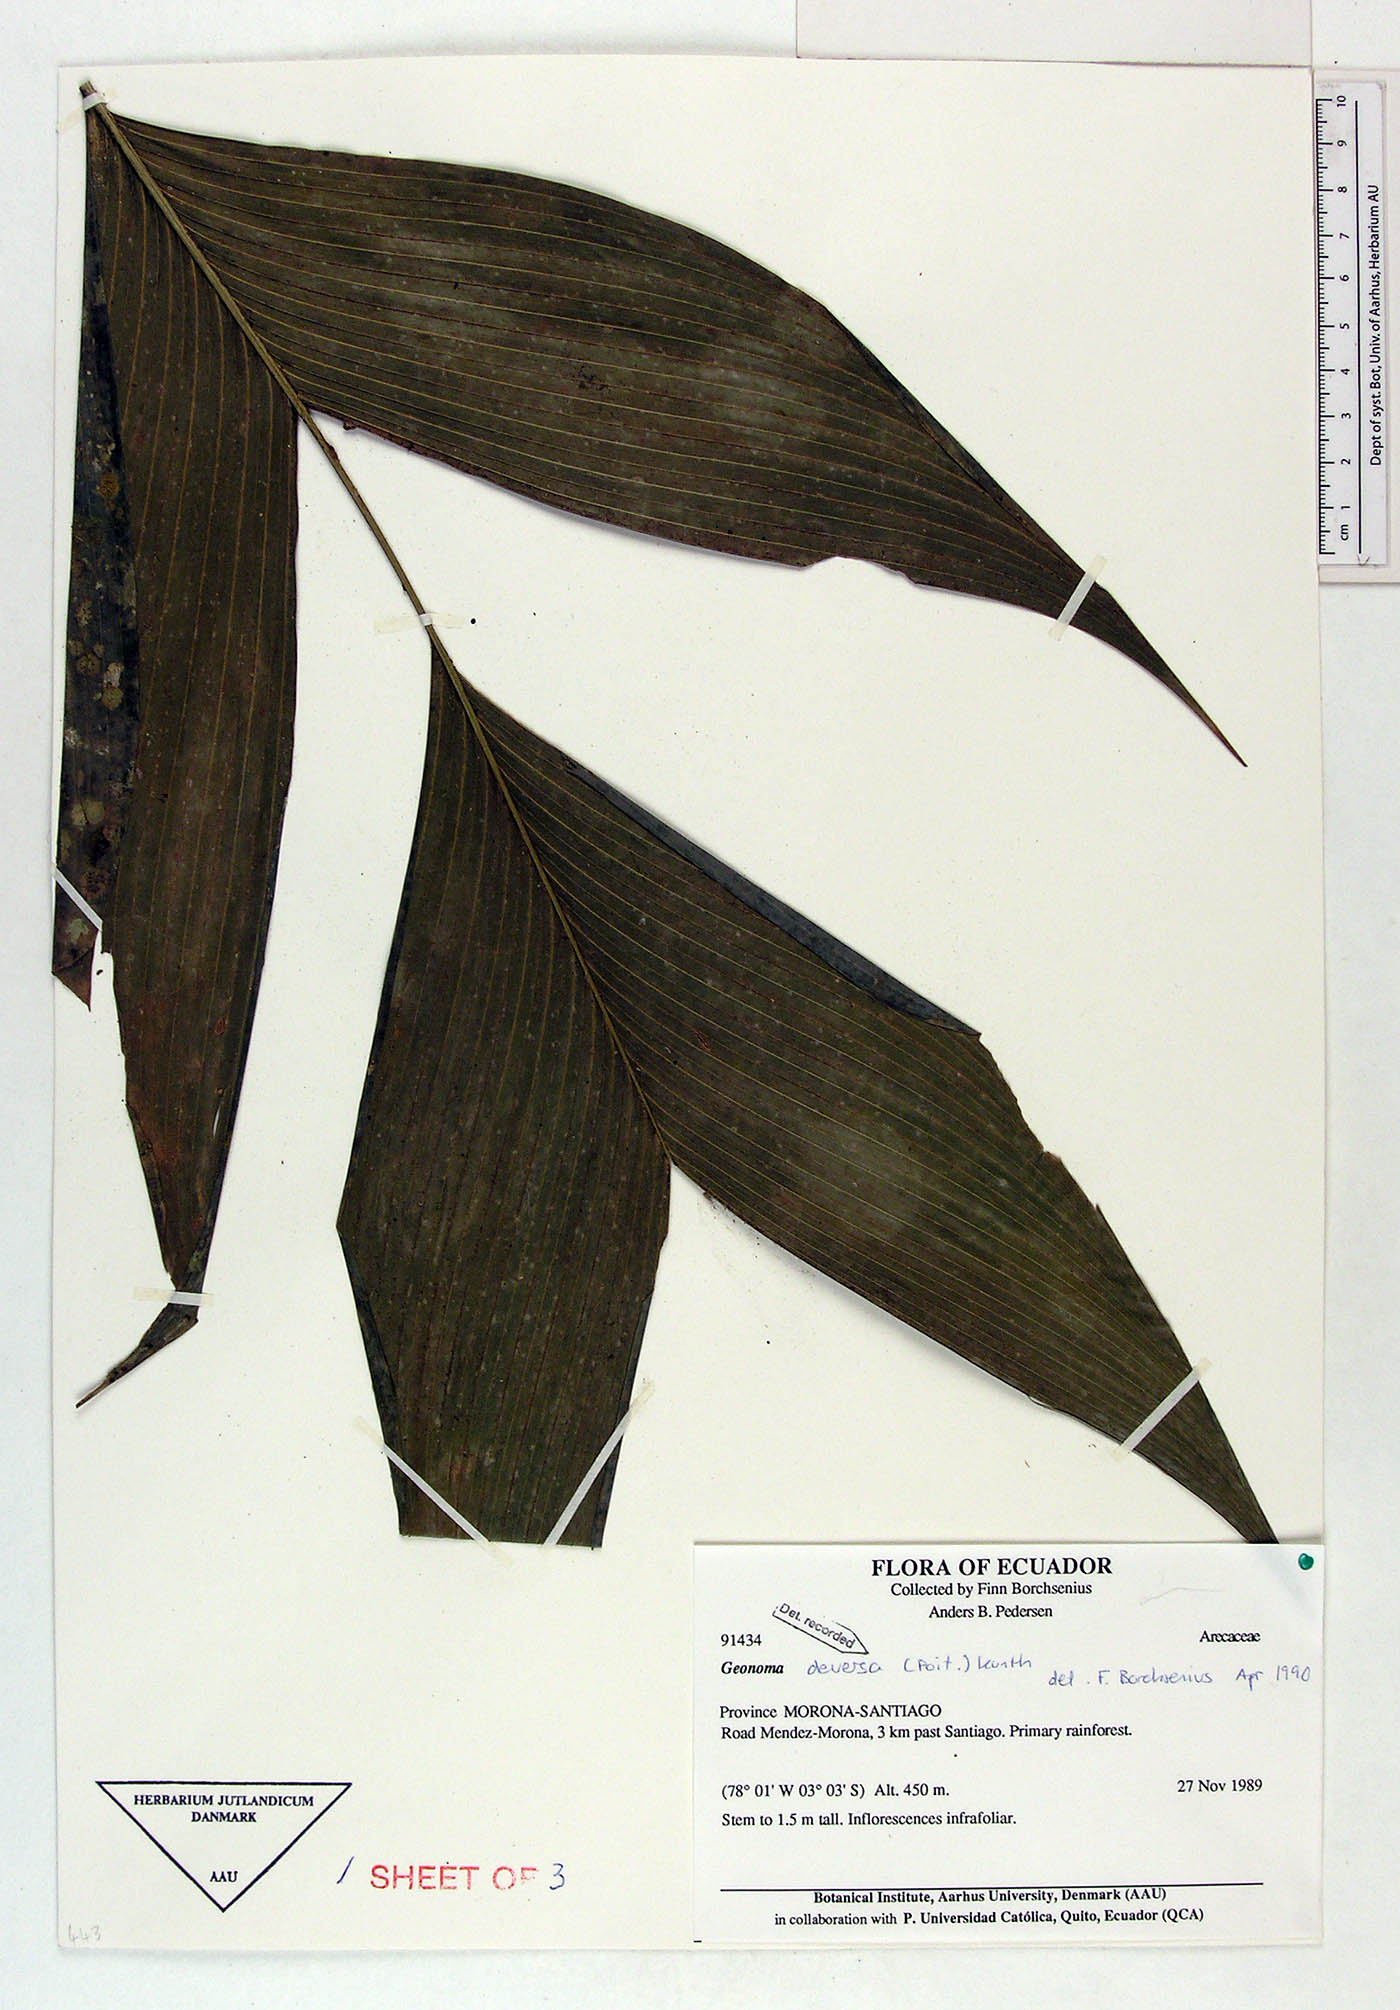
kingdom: Plantae
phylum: Tracheophyta
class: Liliopsida
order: Arecales
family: Arecaceae
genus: Geonoma
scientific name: Geonoma orbignyana
